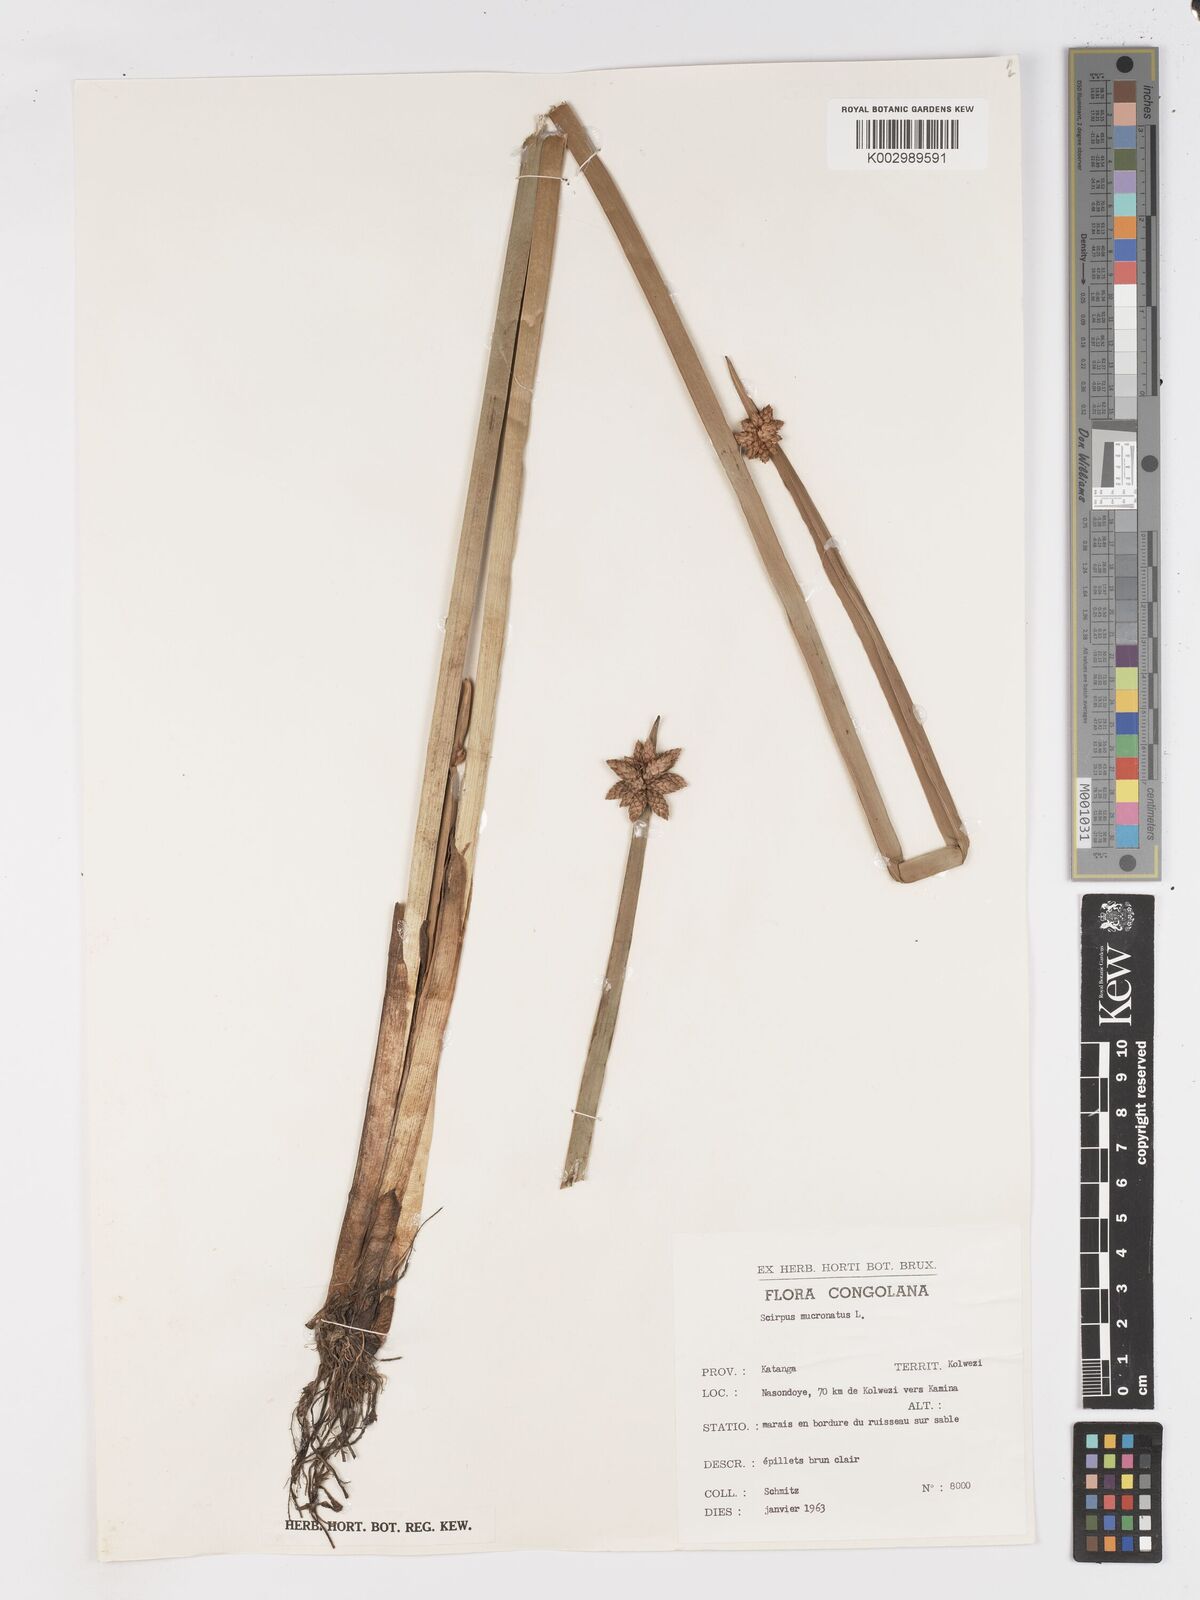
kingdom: Plantae
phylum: Tracheophyta
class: Liliopsida
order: Poales
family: Cyperaceae
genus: Schoenoplectiella
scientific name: Schoenoplectiella mucronata
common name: Bog bulrush
